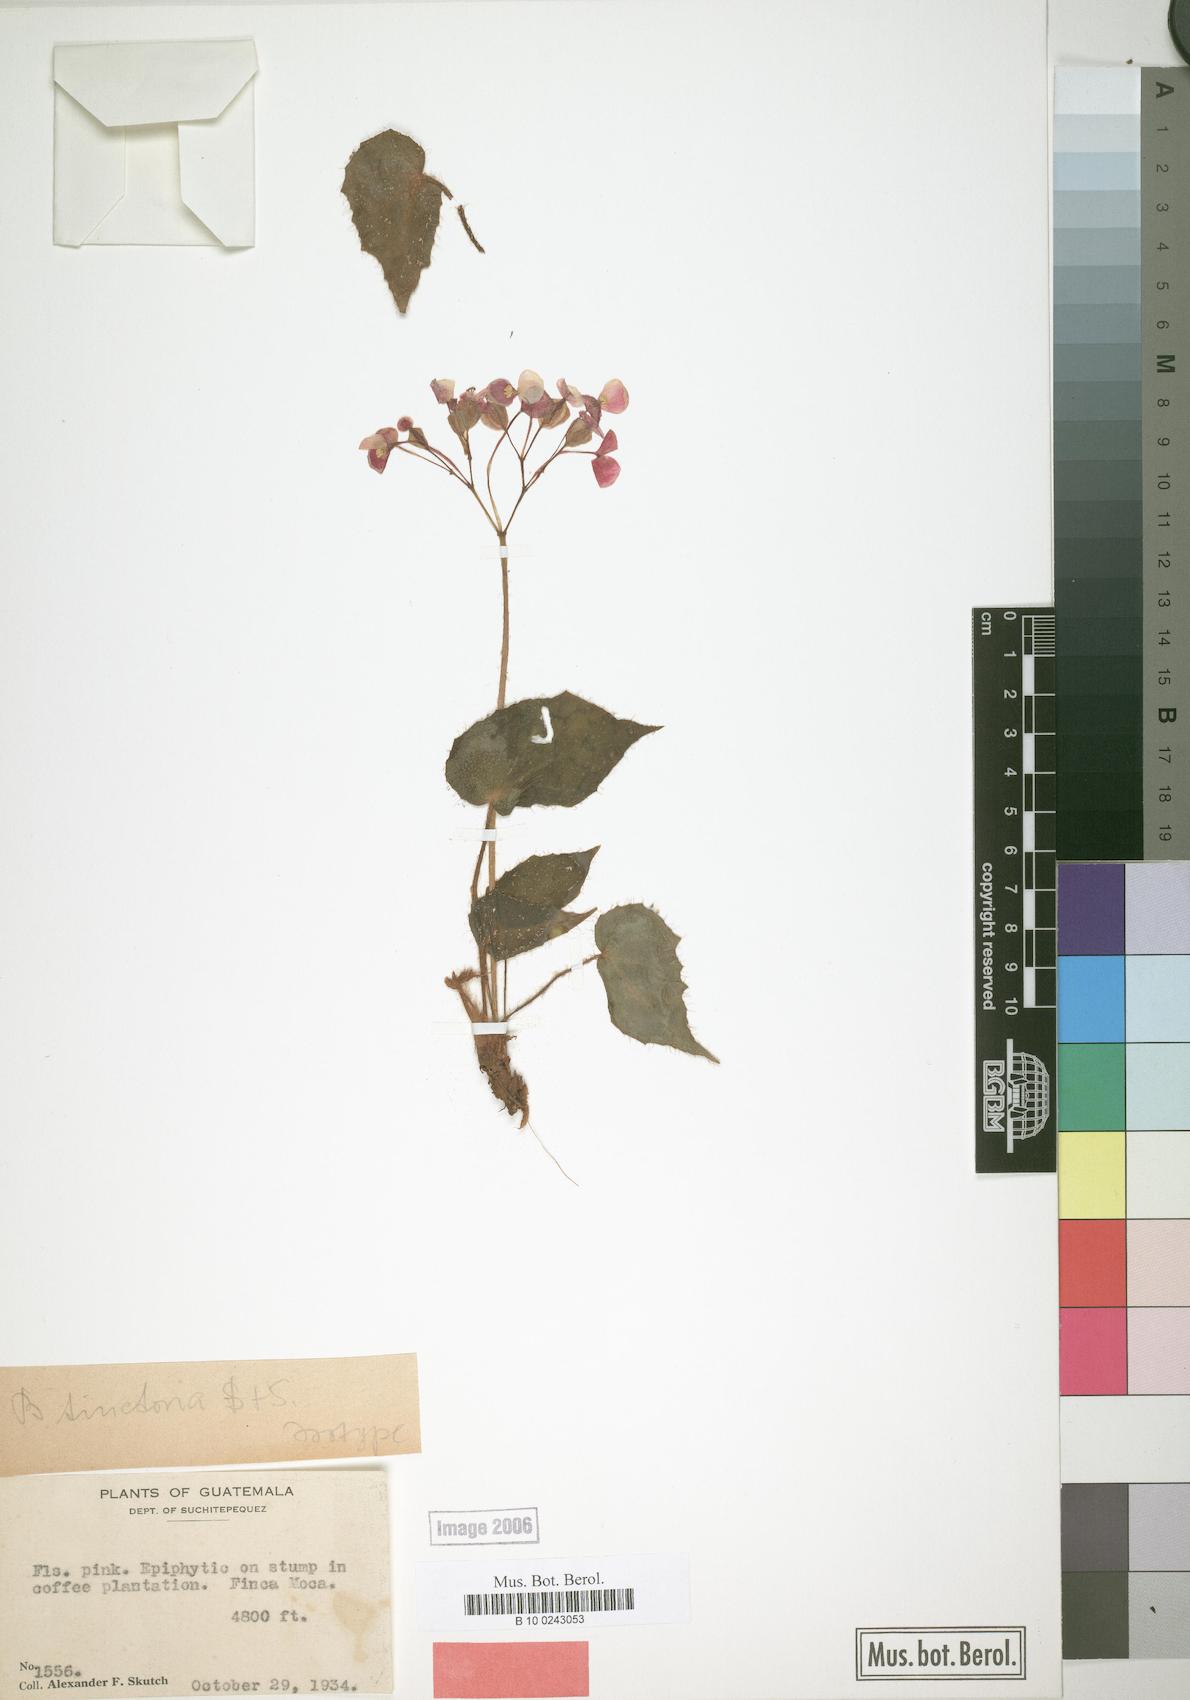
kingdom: Plantae
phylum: Tracheophyta
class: Magnoliopsida
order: Cucurbitales
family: Begoniaceae
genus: Begonia
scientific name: Begonia tinctoria
